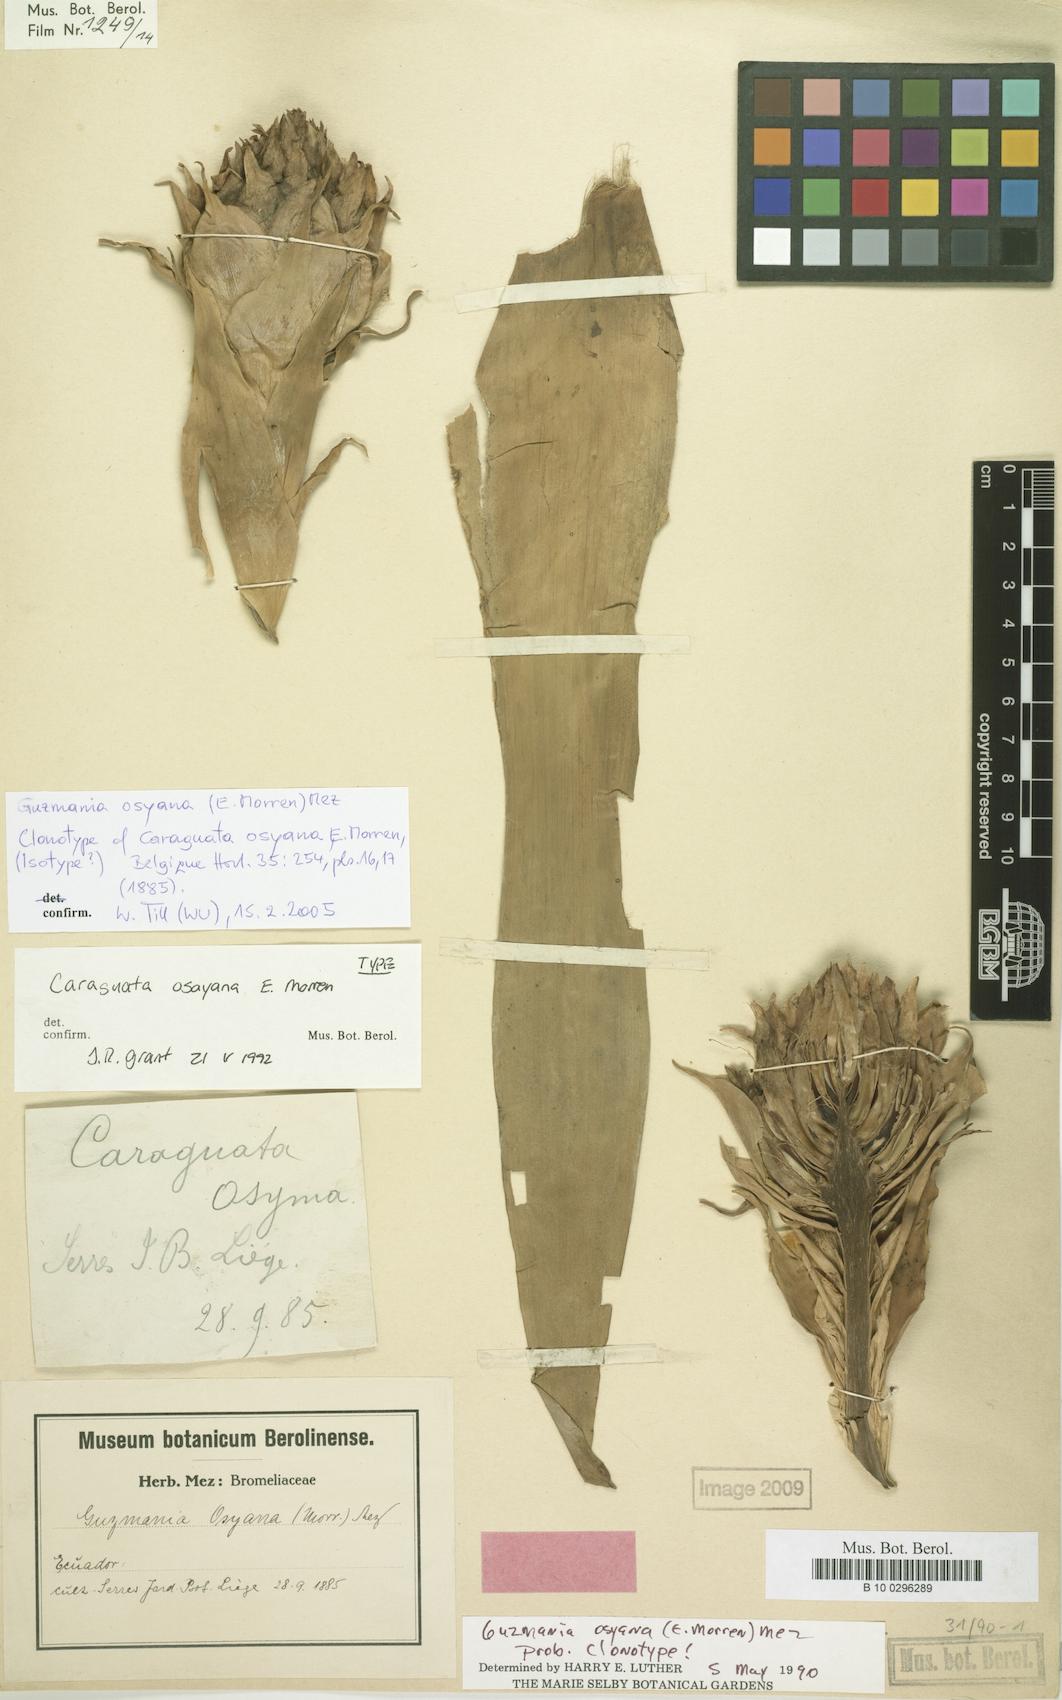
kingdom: Plantae
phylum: Tracheophyta
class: Liliopsida
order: Poales
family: Bromeliaceae
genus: Guzmania
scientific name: Guzmania osyana
